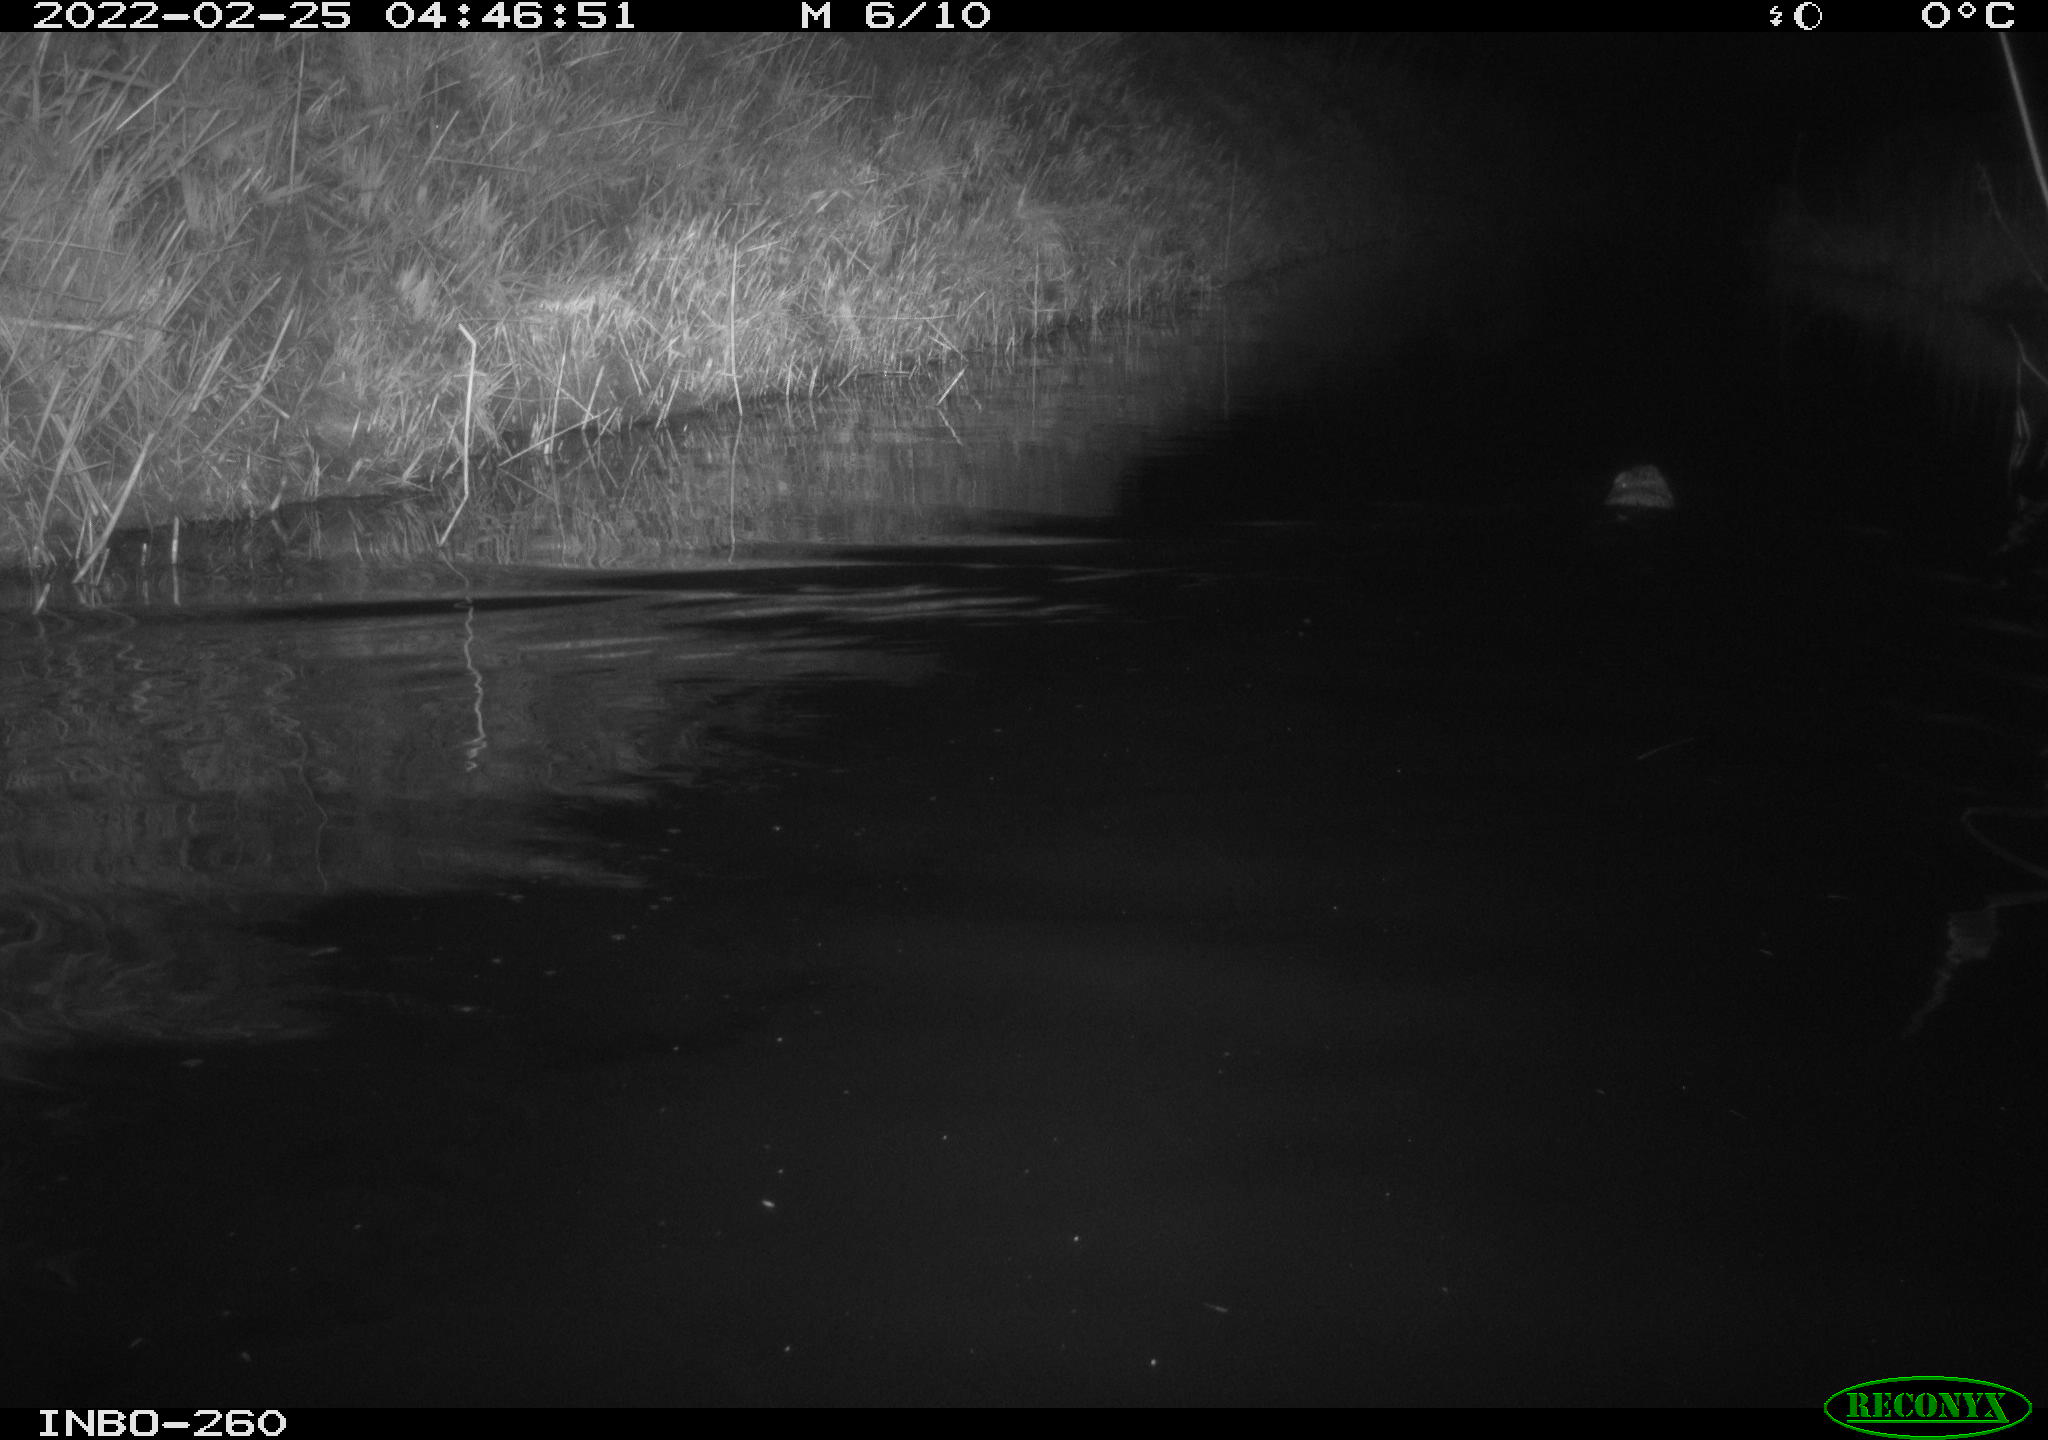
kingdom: Animalia
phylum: Chordata
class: Mammalia
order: Rodentia
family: Cricetidae
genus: Ondatra
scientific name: Ondatra zibethicus
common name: Muskrat
